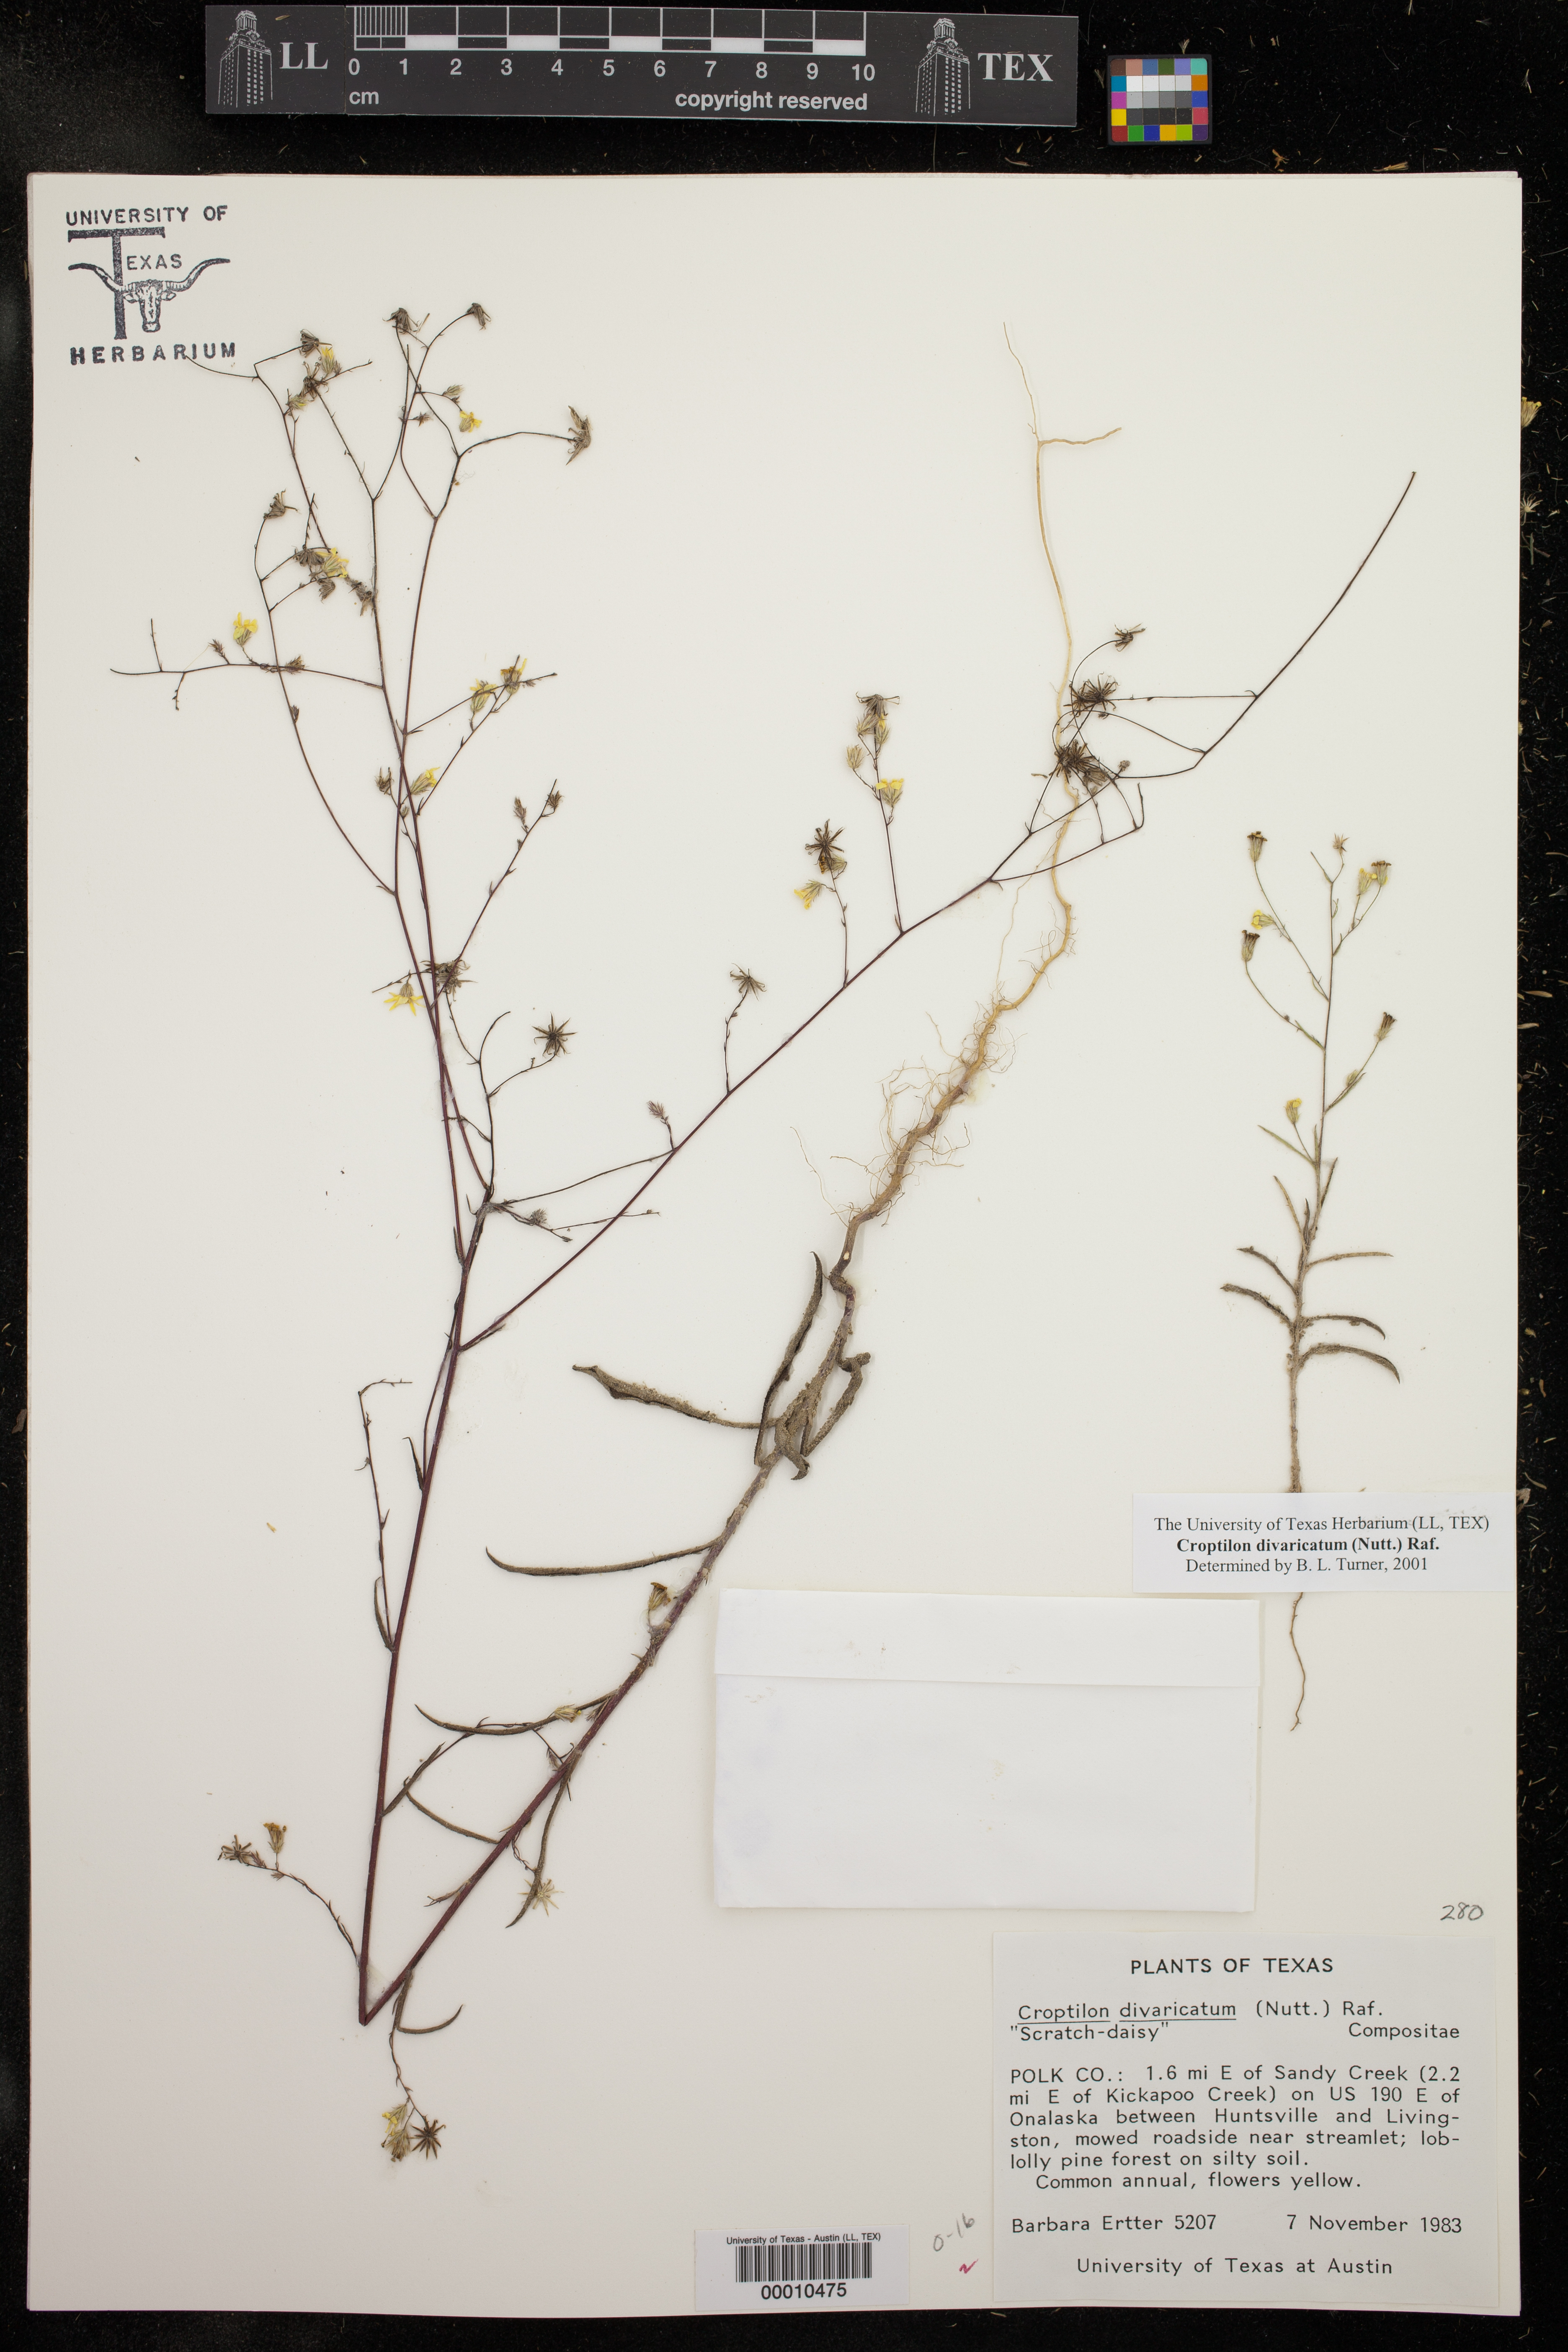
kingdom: Plantae
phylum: Tracheophyta
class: Magnoliopsida
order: Asterales
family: Asteraceae
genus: Croptilon
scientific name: Croptilon divaricatum
